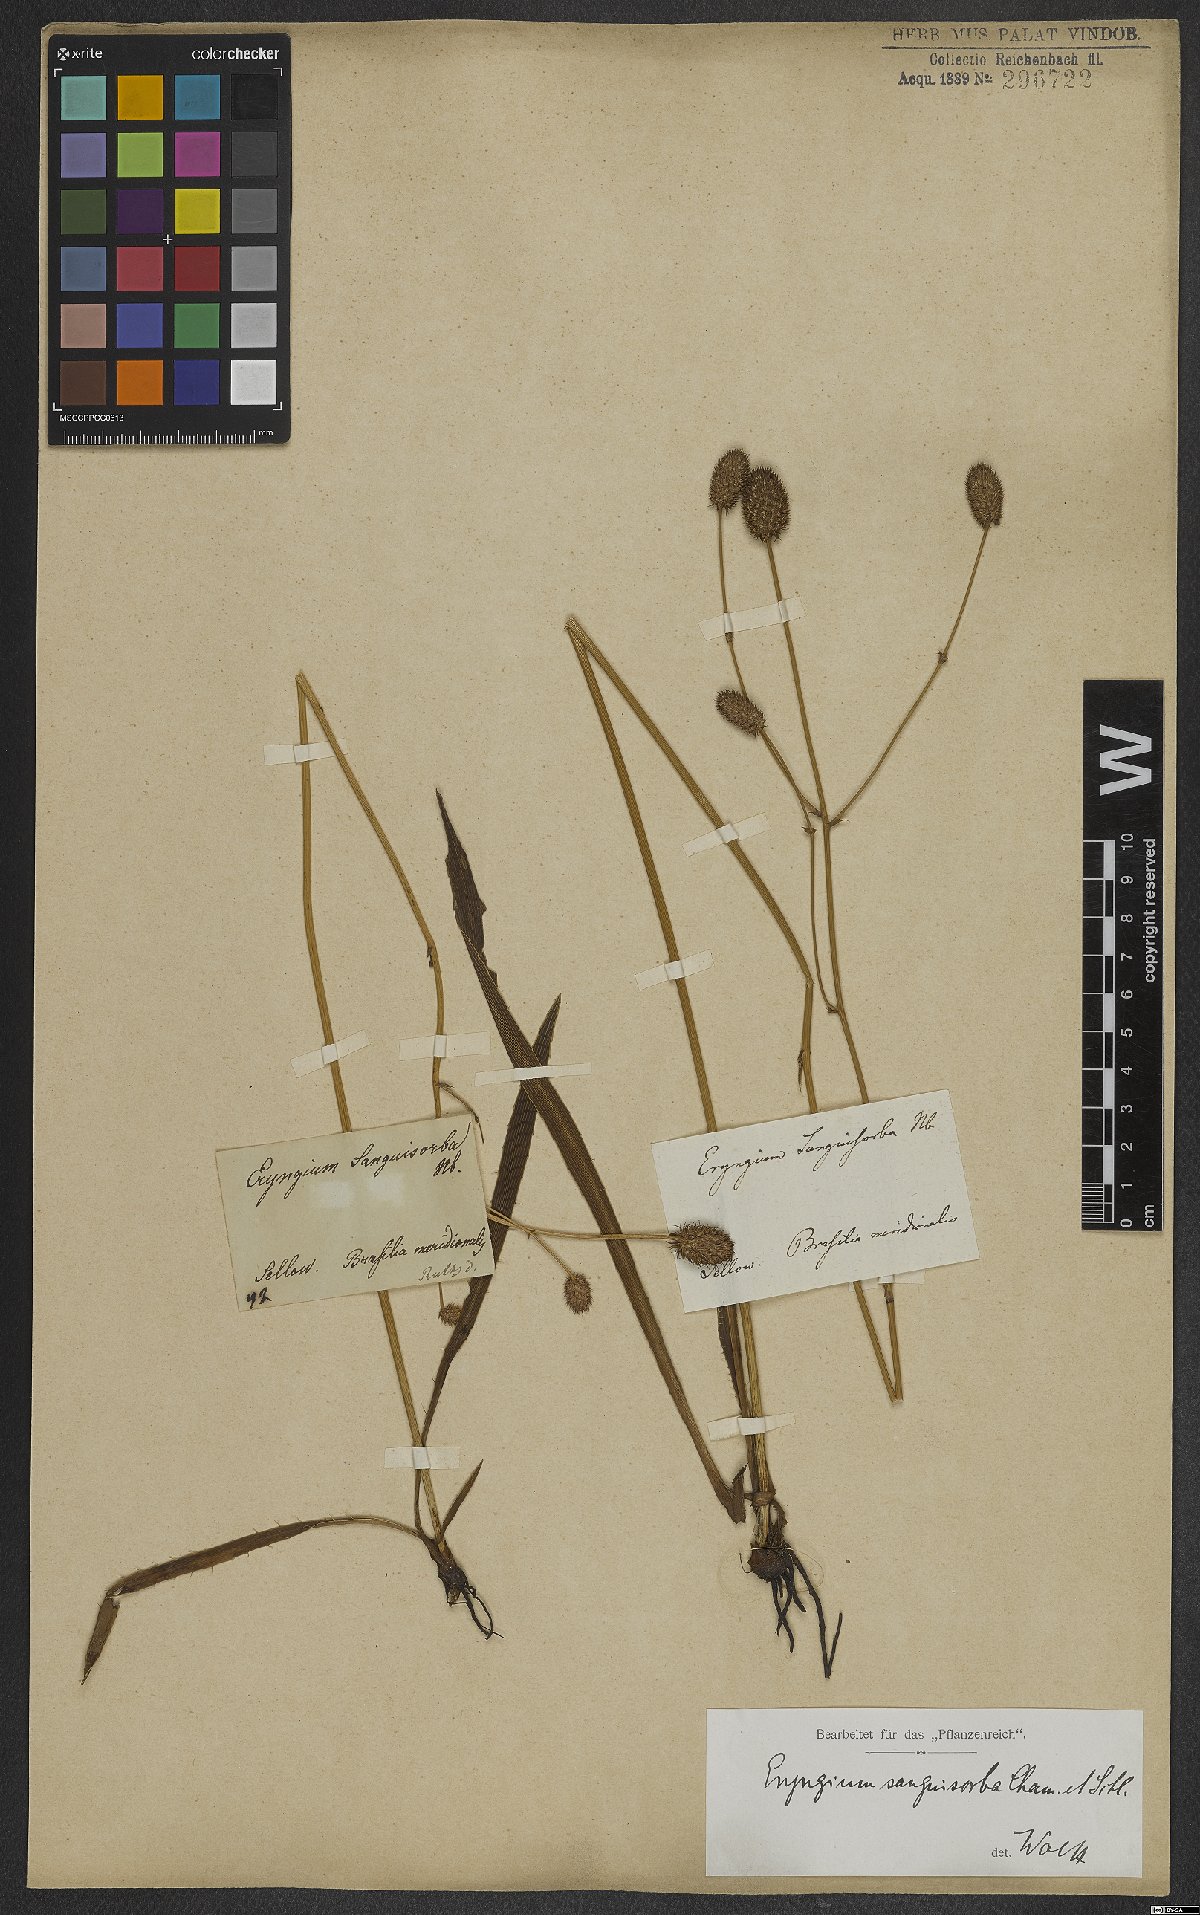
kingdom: Plantae
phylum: Tracheophyta
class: Magnoliopsida
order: Apiales
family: Apiaceae
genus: Eryngium
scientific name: Eryngium sanguisorba
